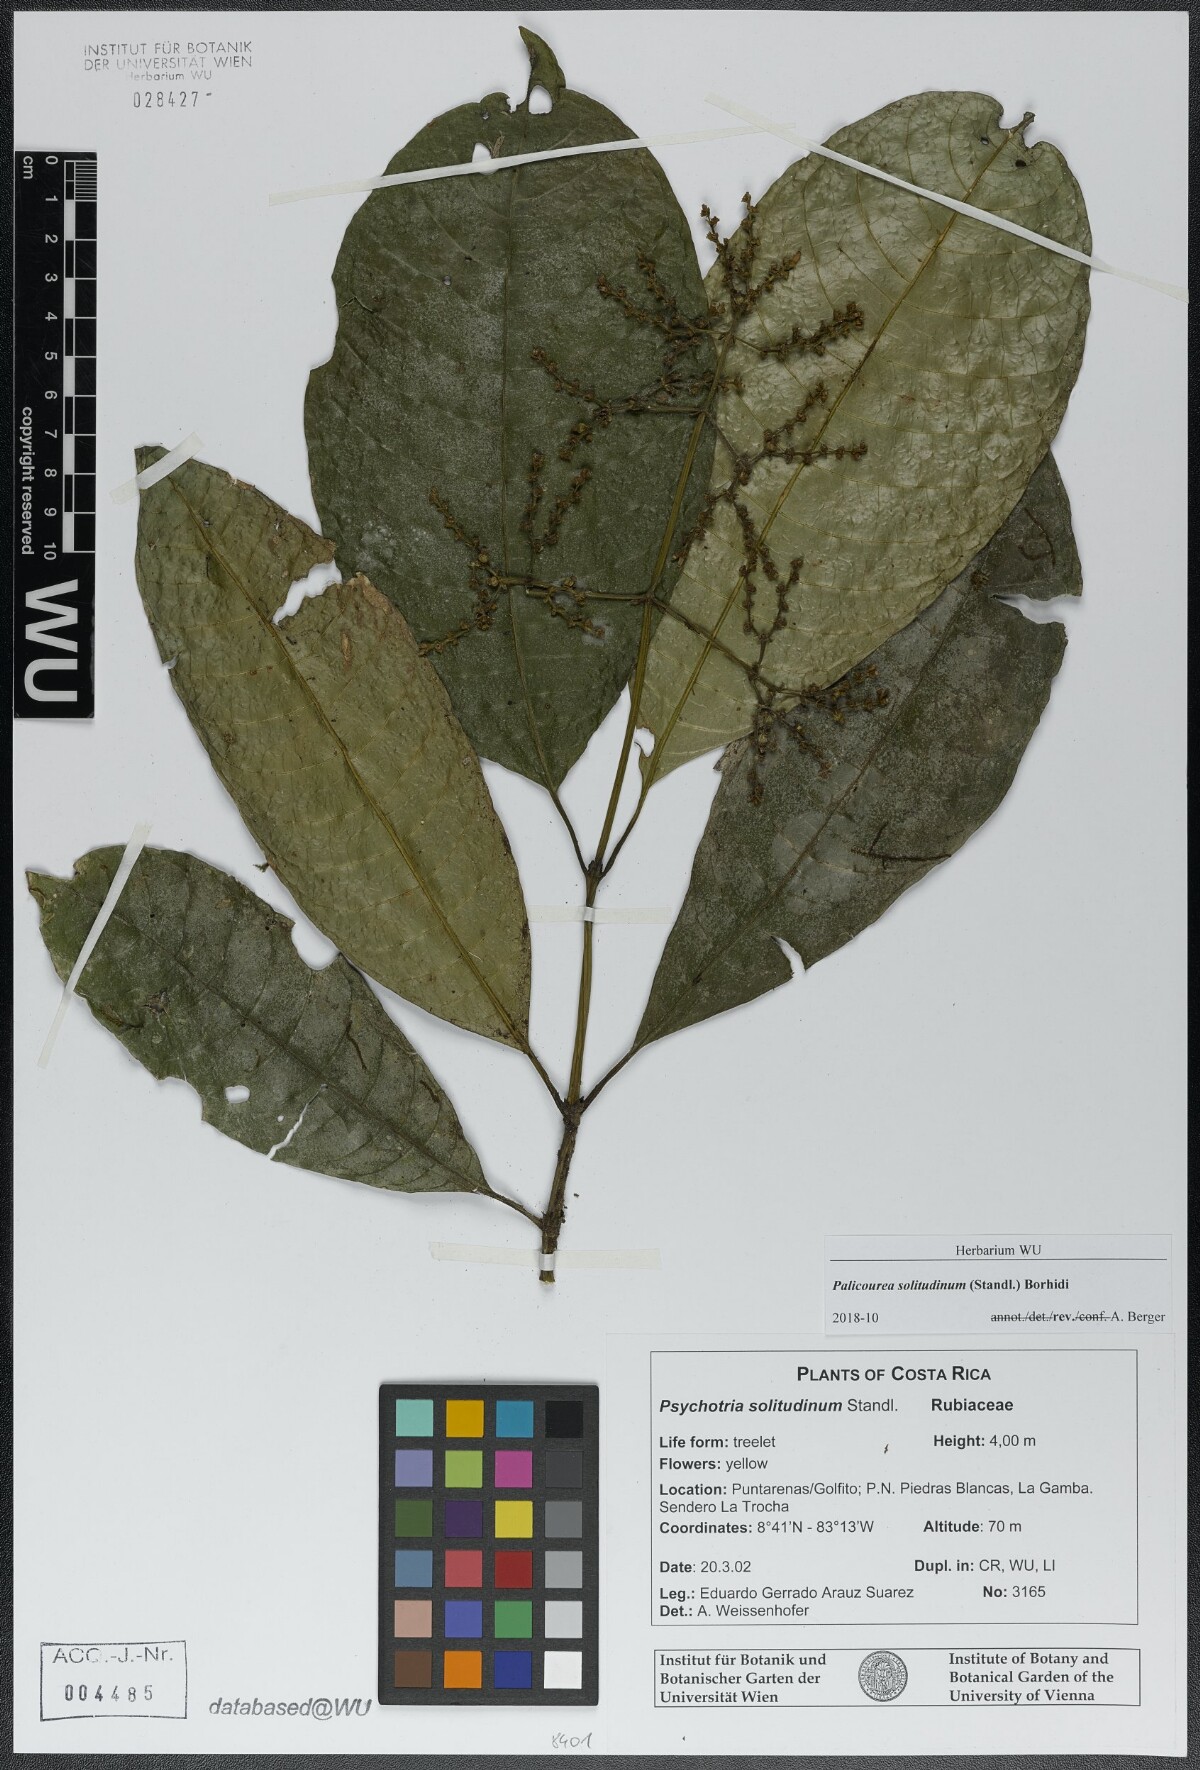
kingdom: Plantae
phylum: Tracheophyta
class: Magnoliopsida
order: Gentianales
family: Rubiaceae
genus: Palicourea
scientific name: Palicourea solitudinum
